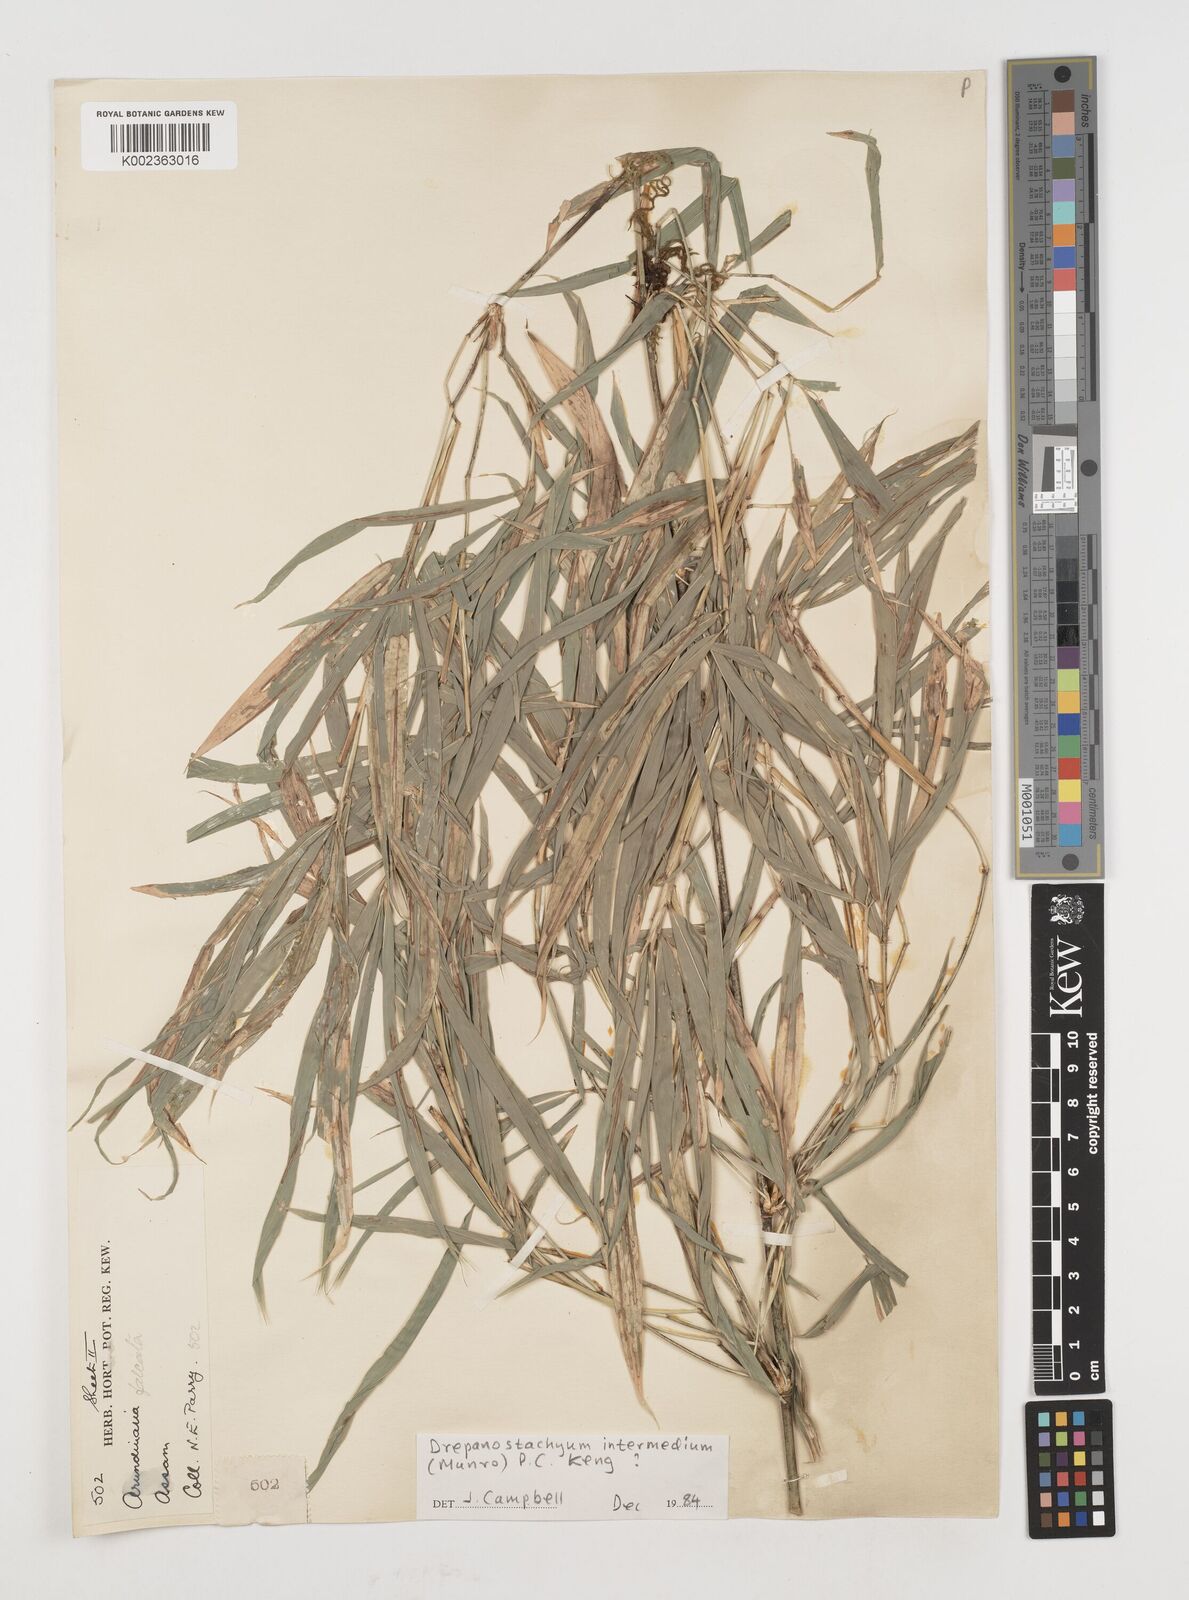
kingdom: Plantae
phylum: Tracheophyta
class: Liliopsida
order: Poales
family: Poaceae
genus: Drepanostachyum
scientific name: Drepanostachyum intermedium
